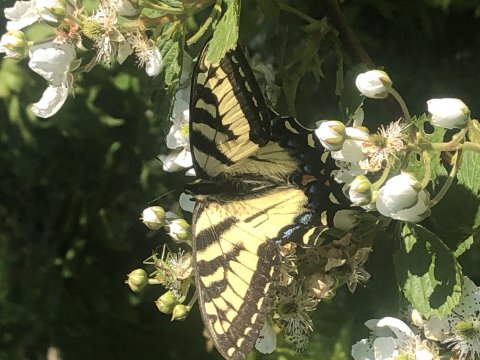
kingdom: Animalia
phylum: Arthropoda
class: Insecta
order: Lepidoptera
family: Papilionidae
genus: Pterourus
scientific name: Pterourus canadensis
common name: Canadian Tiger Swallowtail
